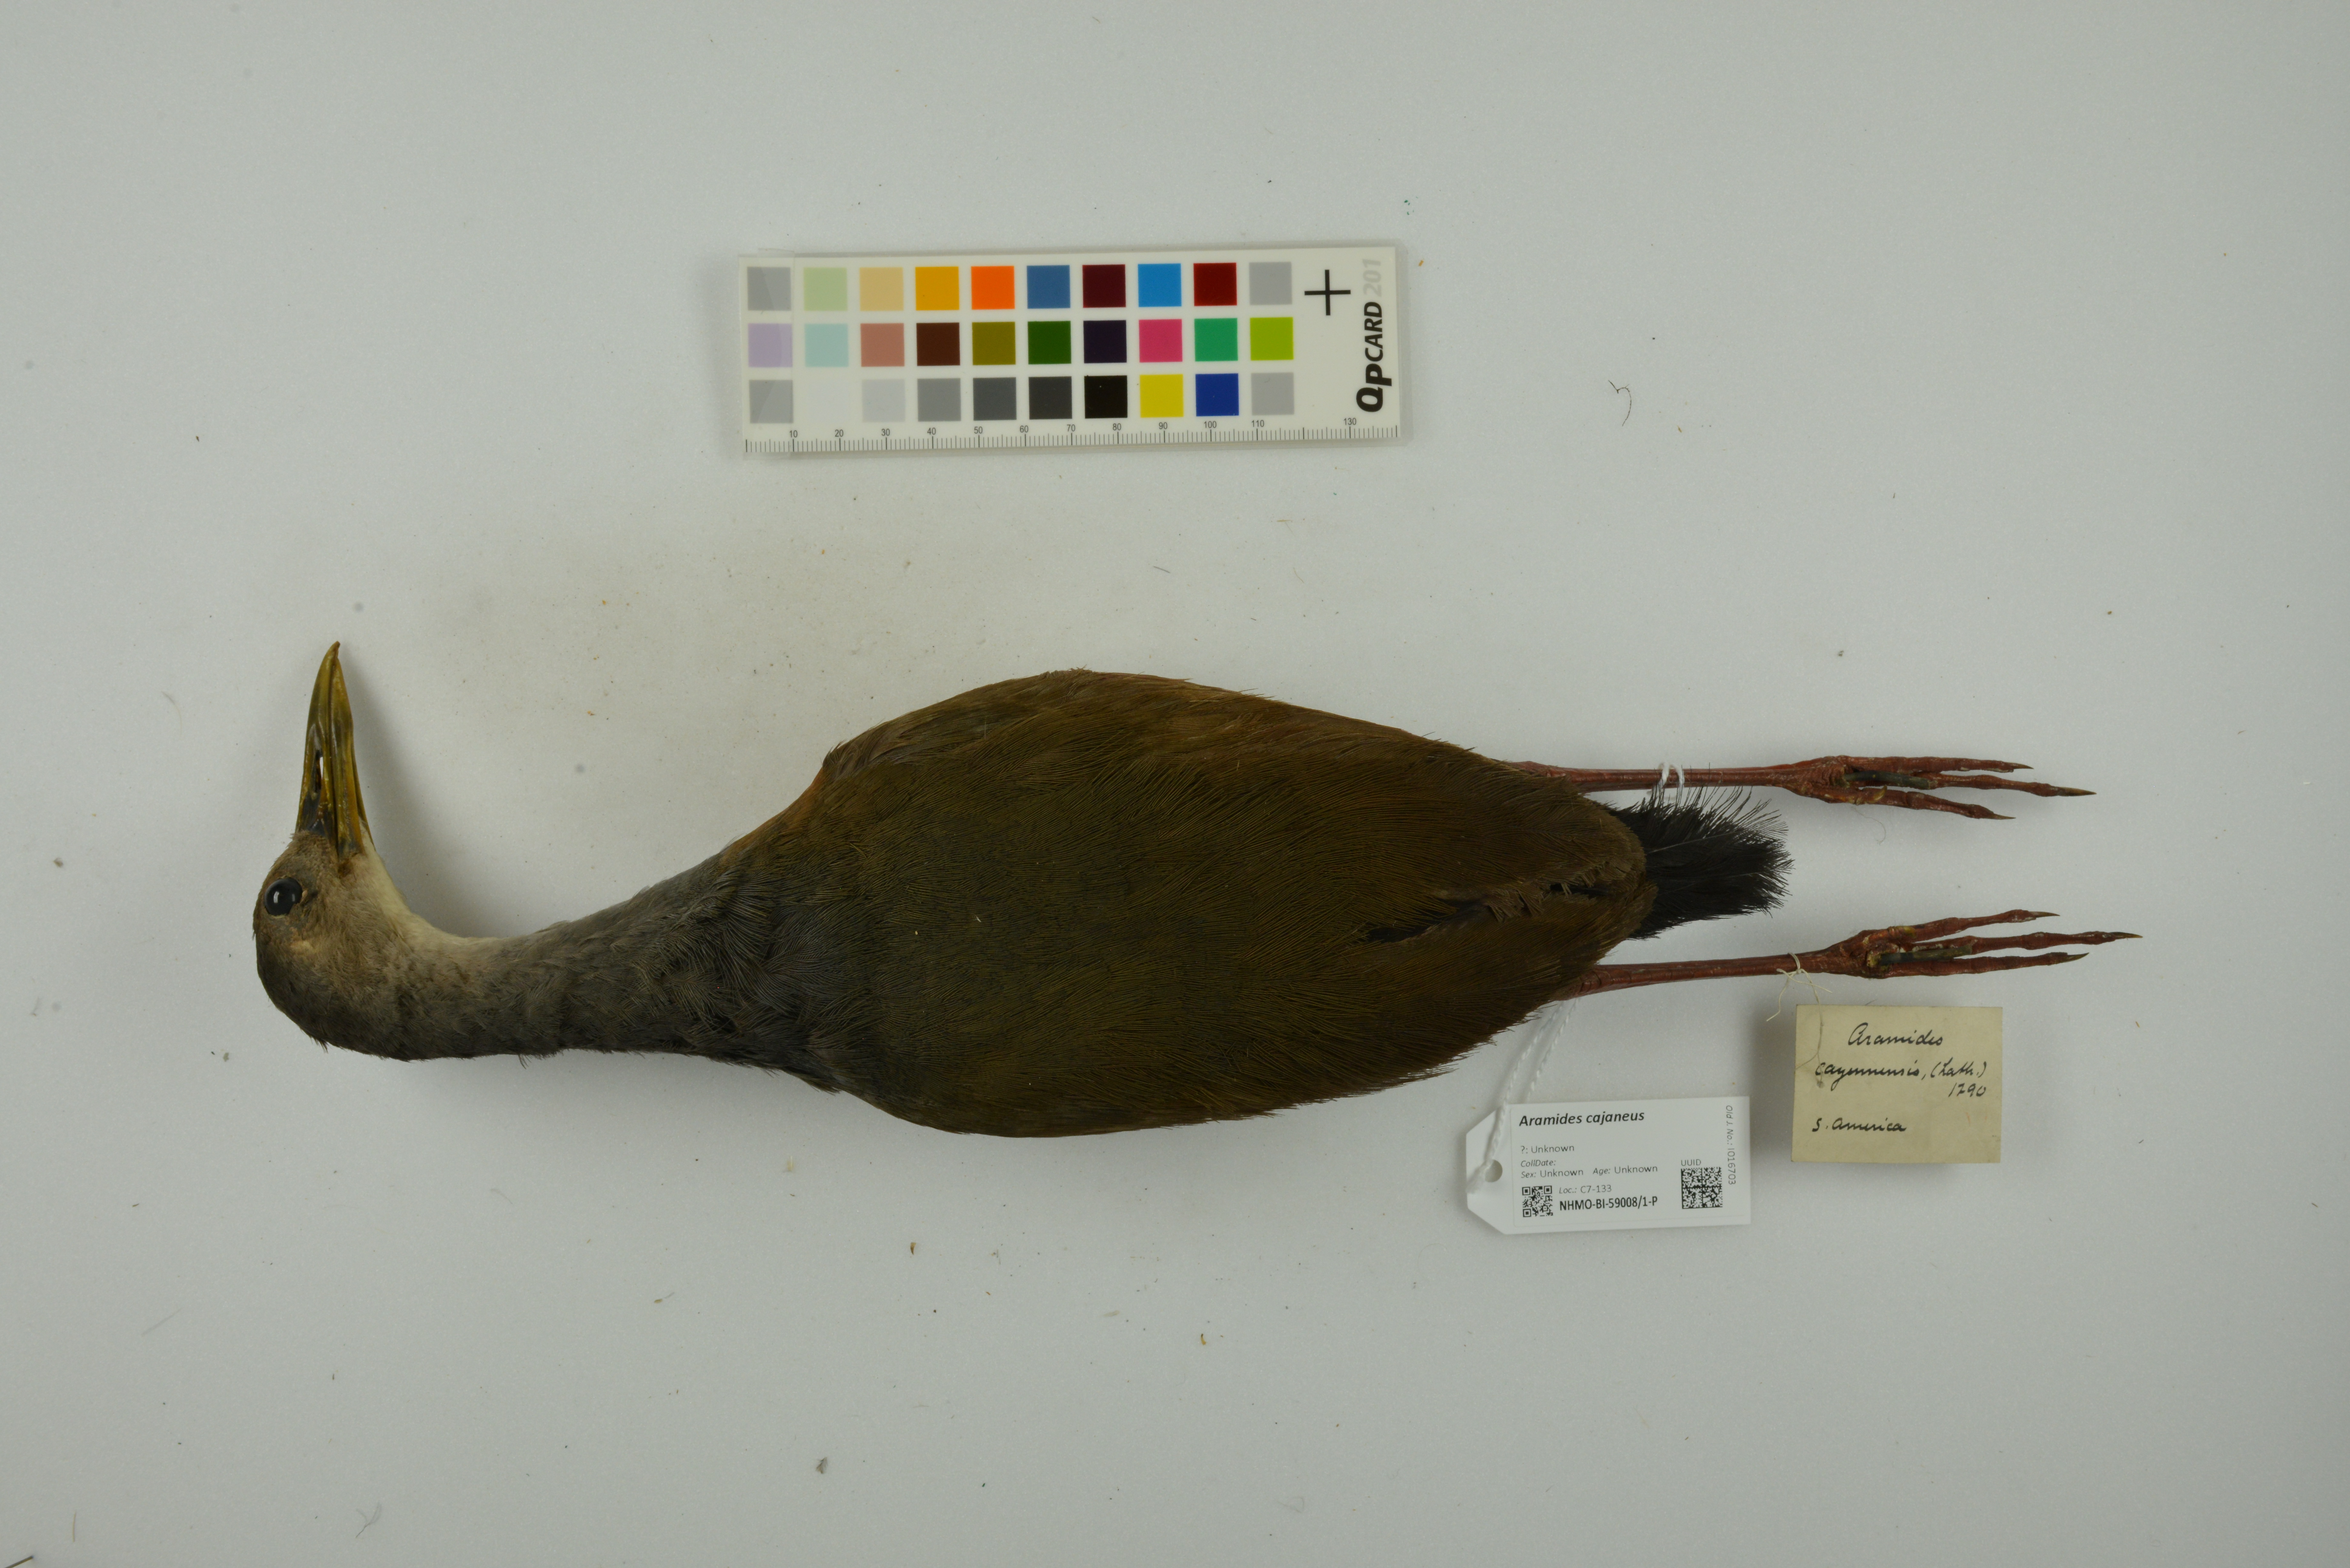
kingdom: Animalia
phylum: Chordata
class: Aves
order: Gruiformes
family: Rallidae
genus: Aramides
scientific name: Aramides cajanea
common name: Gray-necked wood-rail
